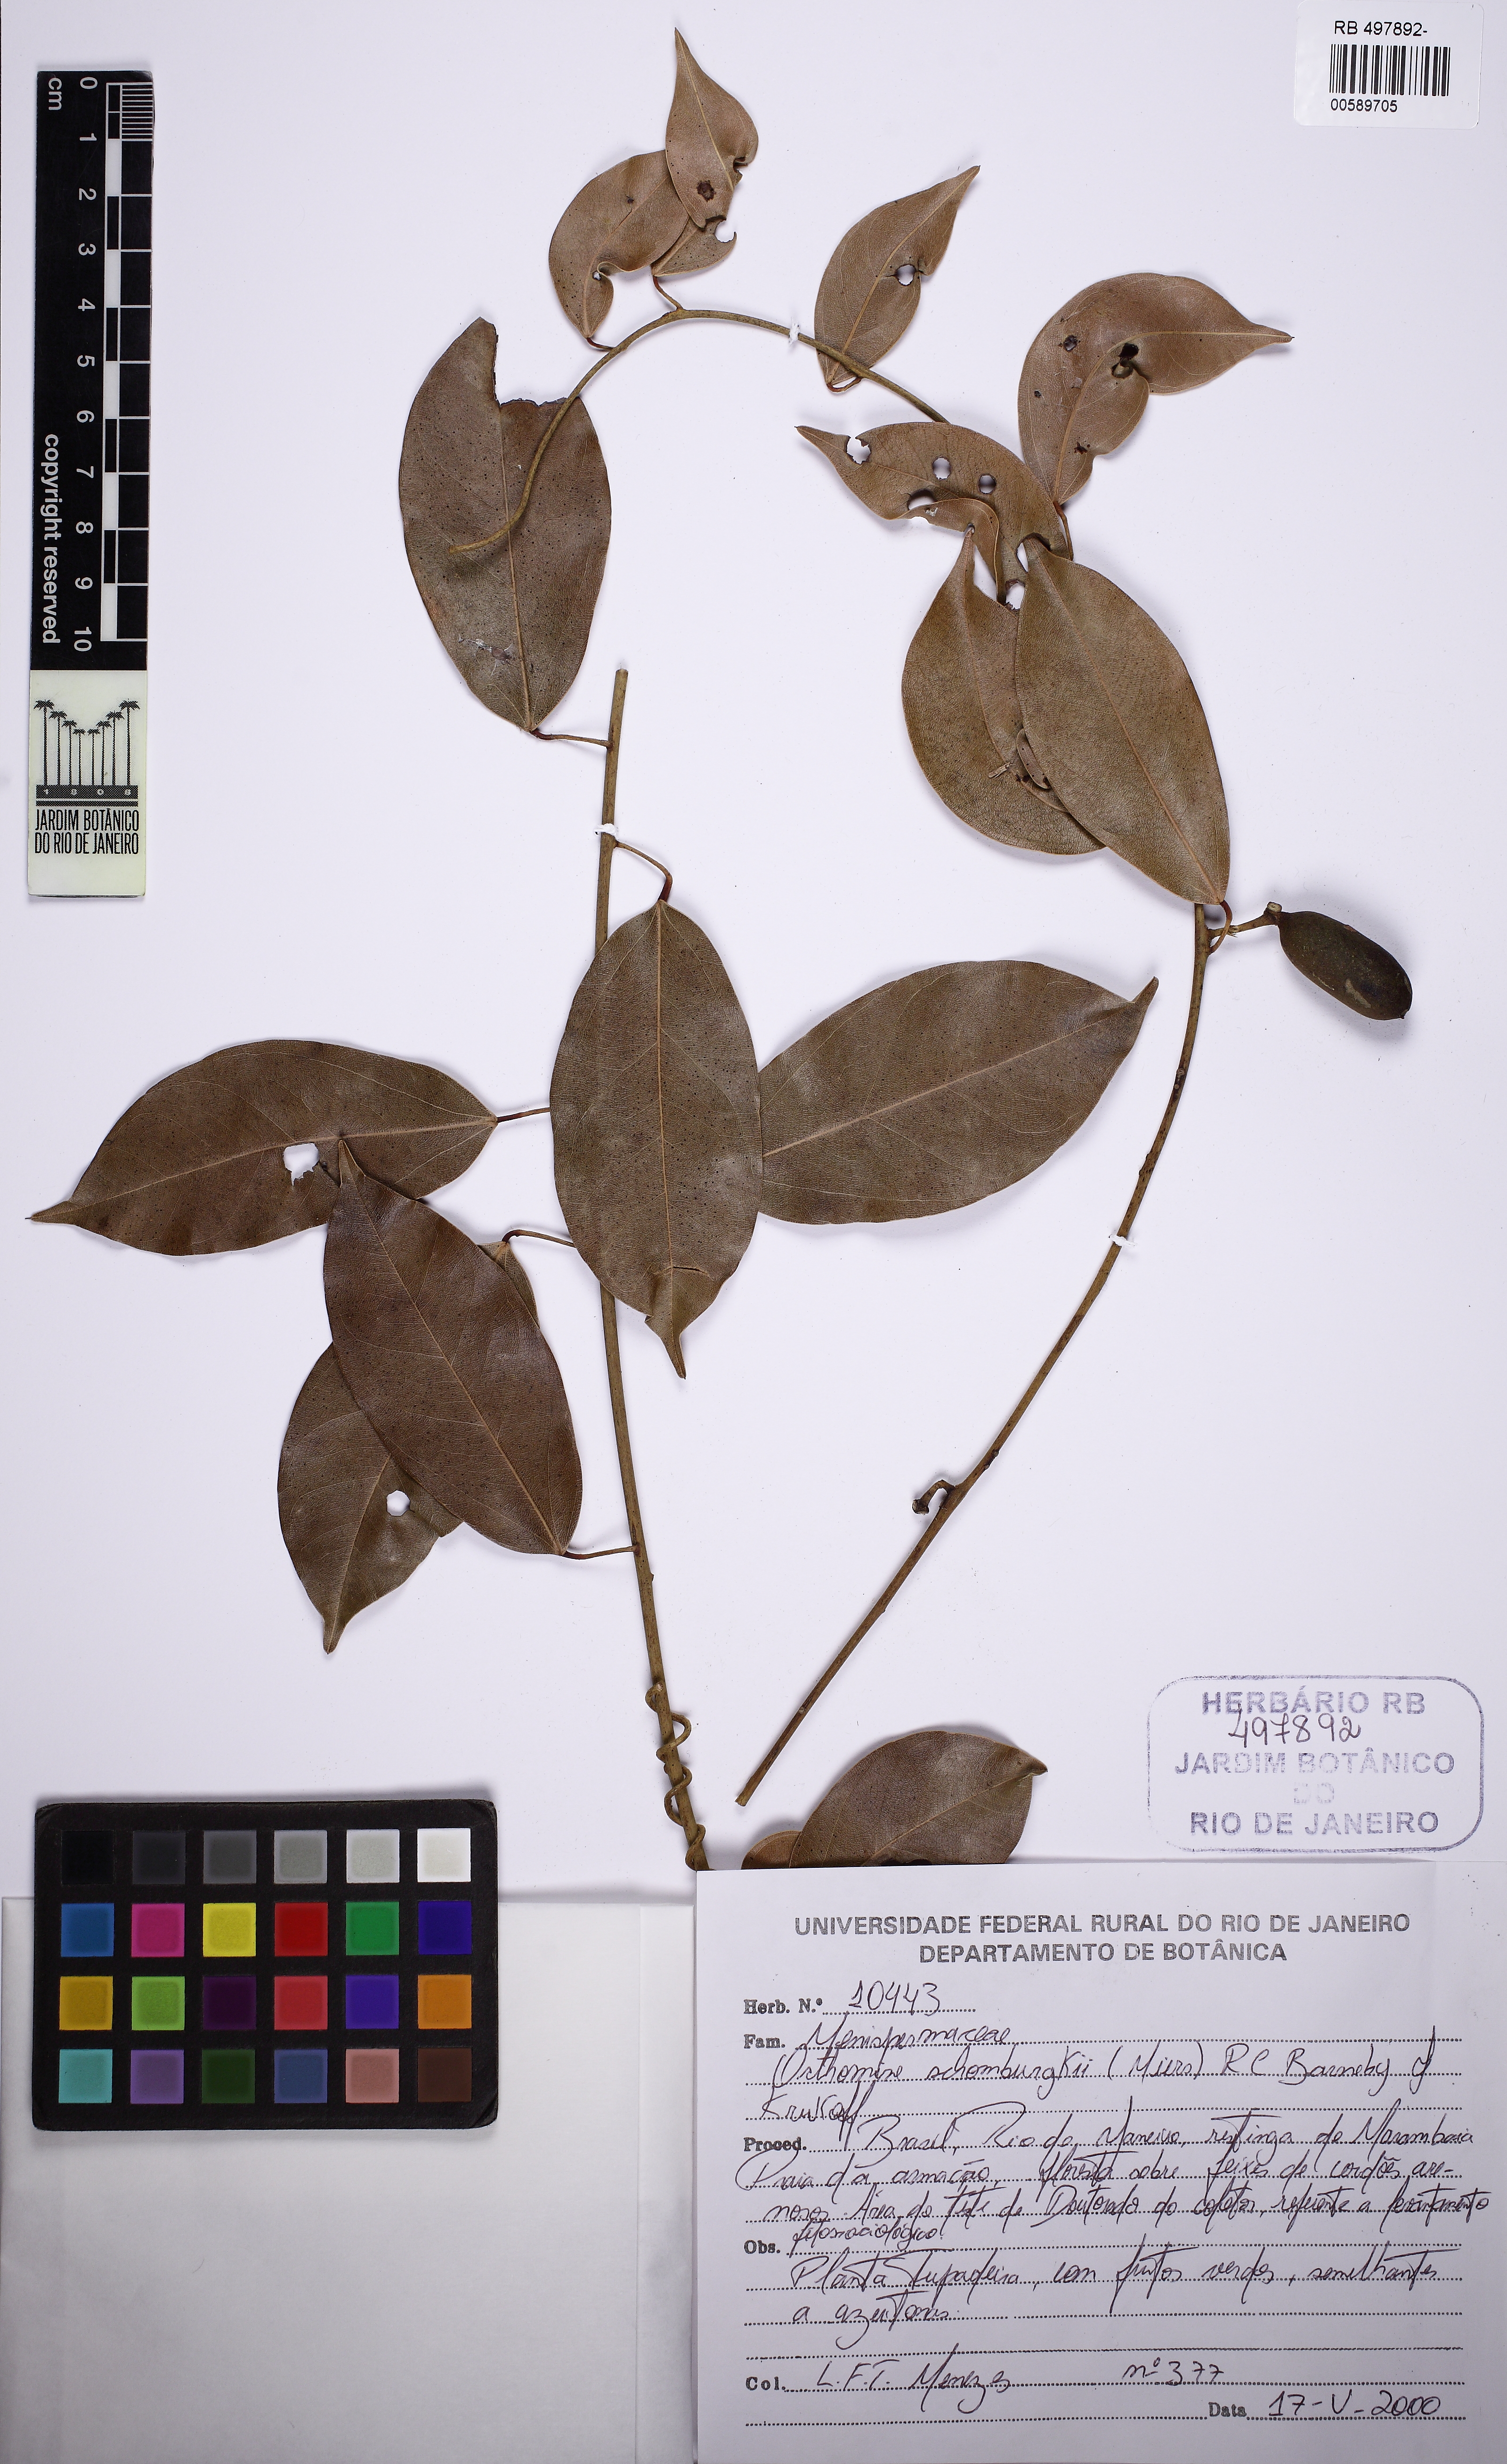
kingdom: Plantae
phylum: Tracheophyta
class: Magnoliopsida
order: Ranunculales
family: Menispermaceae
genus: Orthomene
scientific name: Orthomene schomburgkii
